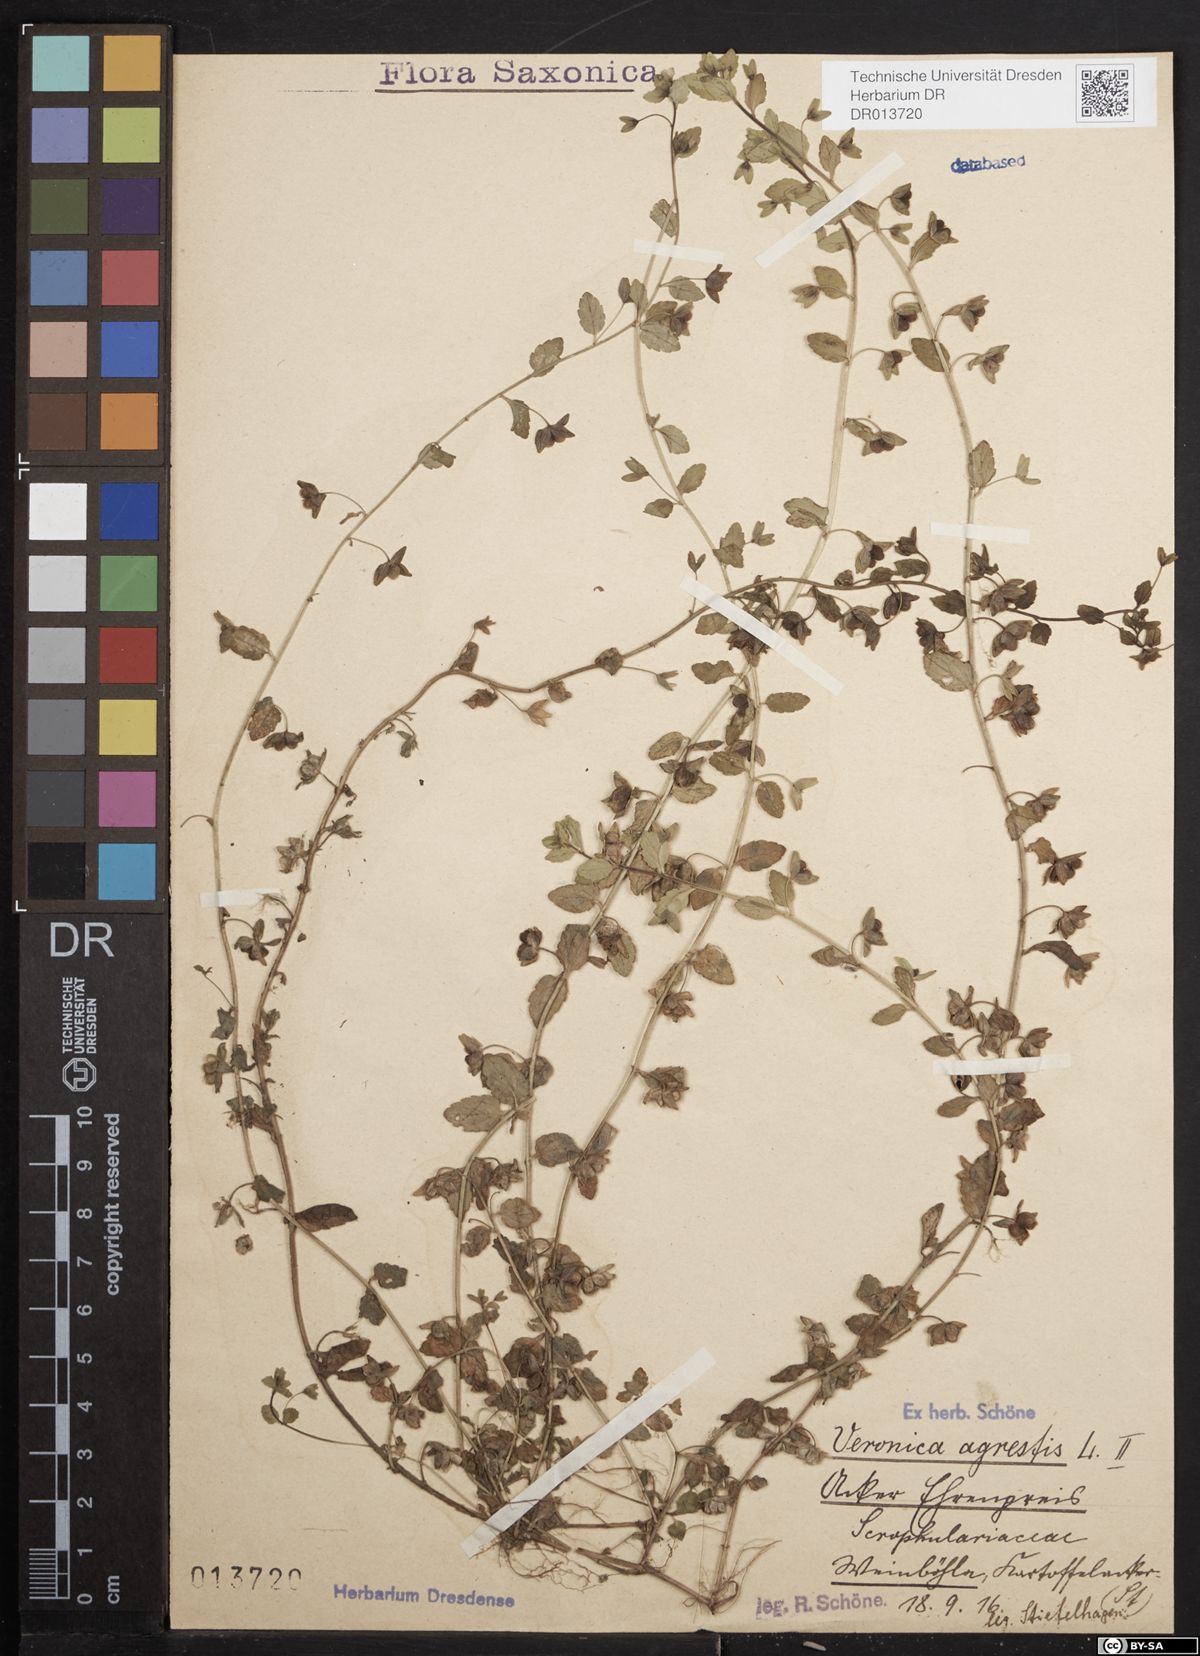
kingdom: Plantae
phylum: Tracheophyta
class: Magnoliopsida
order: Lamiales
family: Plantaginaceae
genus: Veronica
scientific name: Veronica agrestis
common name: Green field-speedwell
